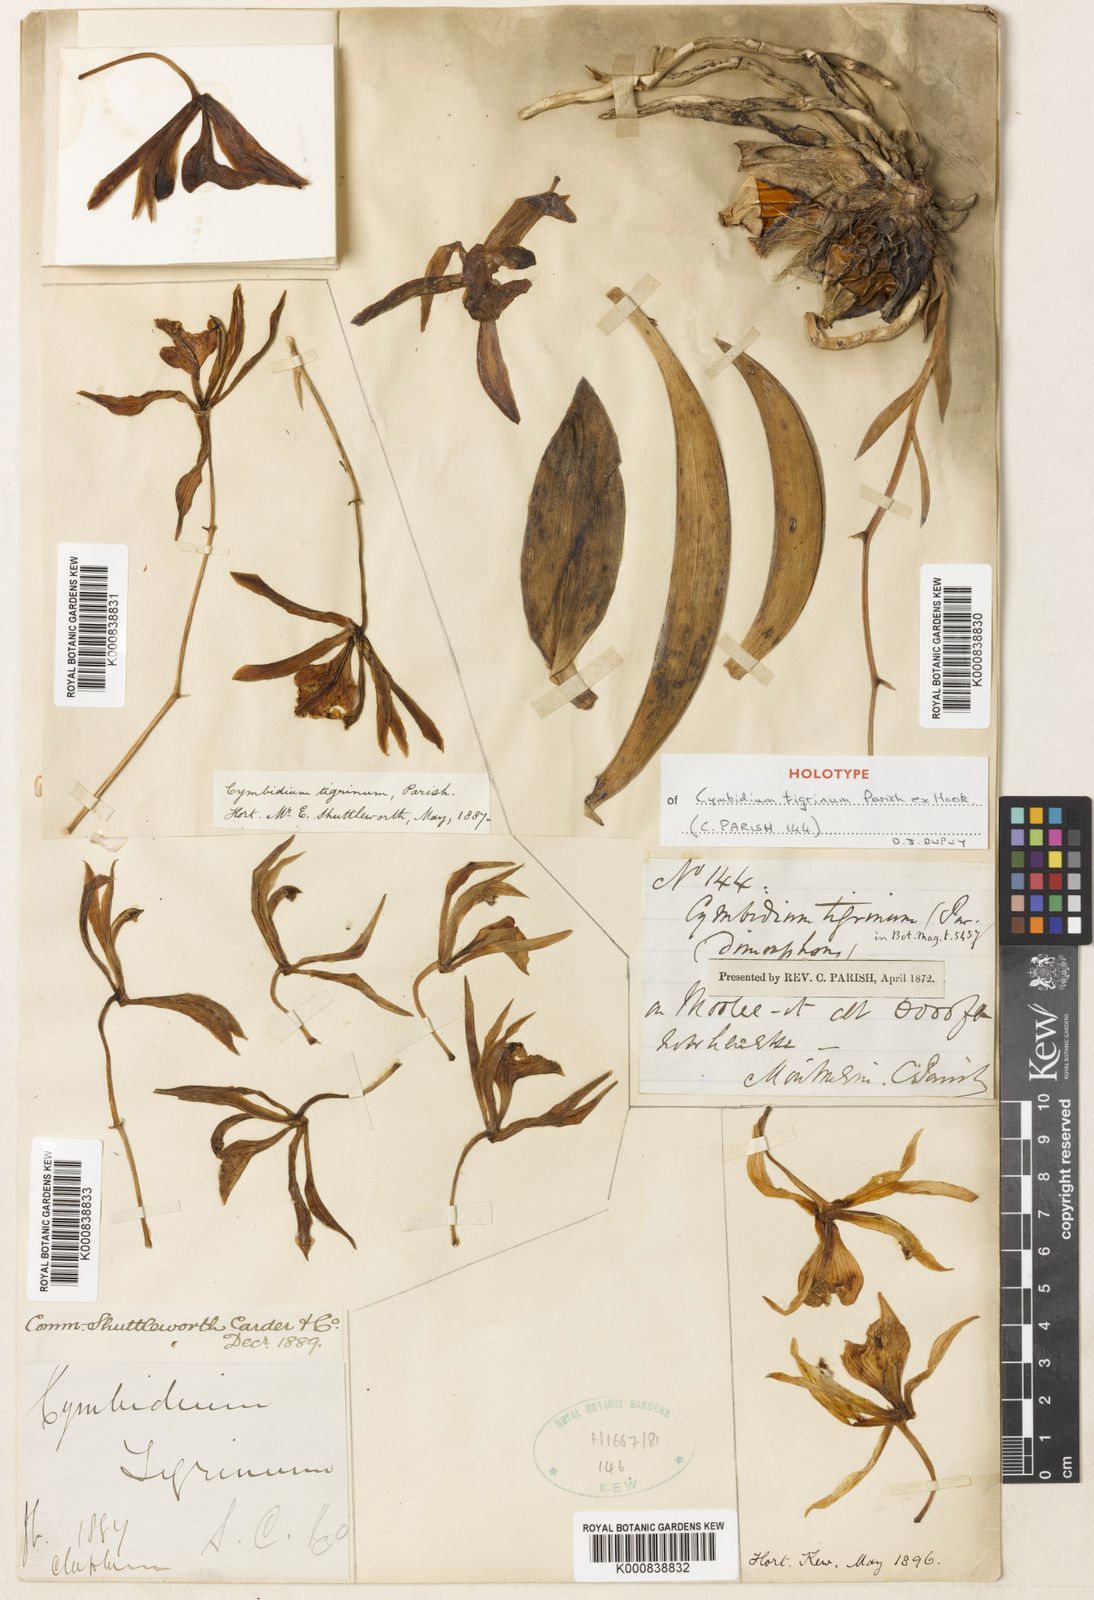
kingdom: Plantae
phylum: Tracheophyta
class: Liliopsida
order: Asparagales
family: Orchidaceae
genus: Cymbidium
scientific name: Cymbidium tigrinum
